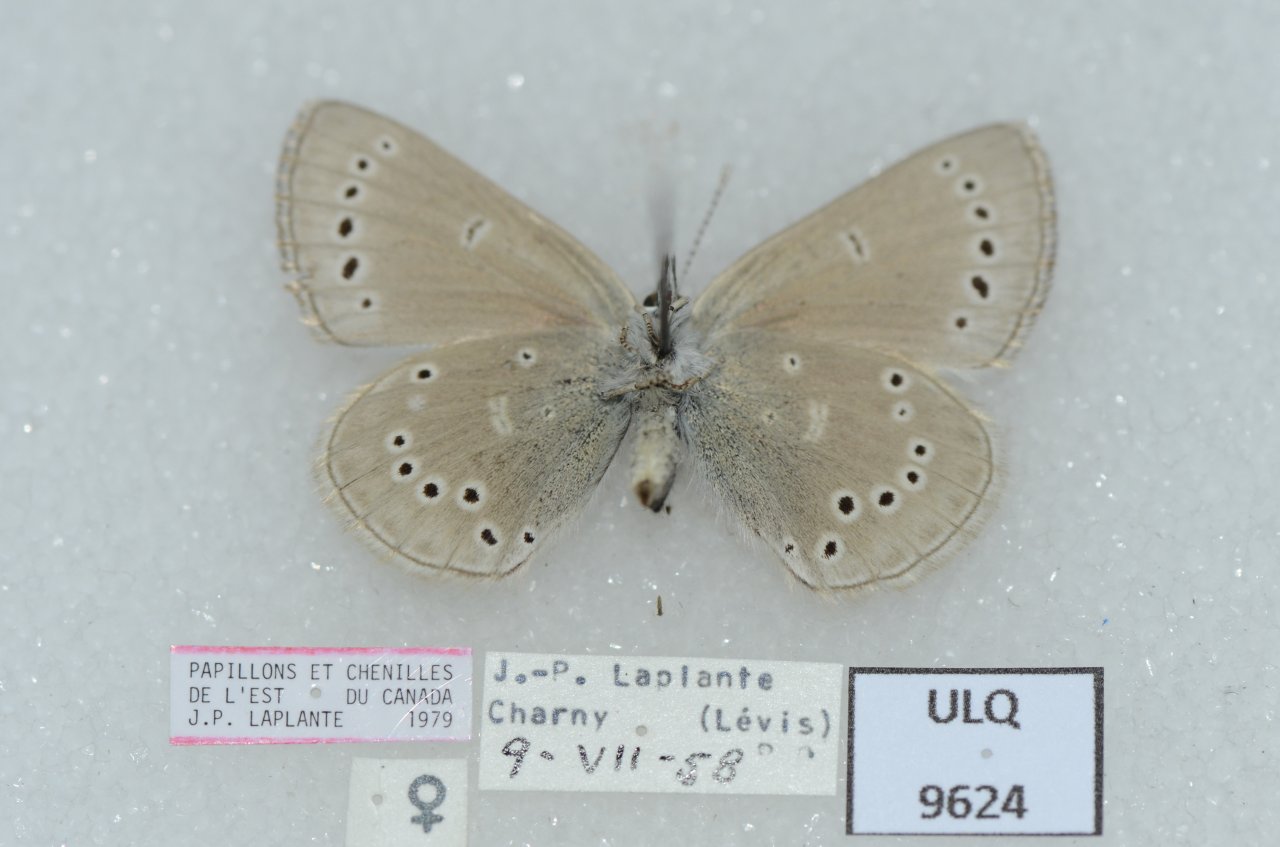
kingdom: Animalia
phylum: Arthropoda
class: Insecta
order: Lepidoptera
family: Lycaenidae
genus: Glaucopsyche
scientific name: Glaucopsyche lygdamus
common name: Silvery Blue
